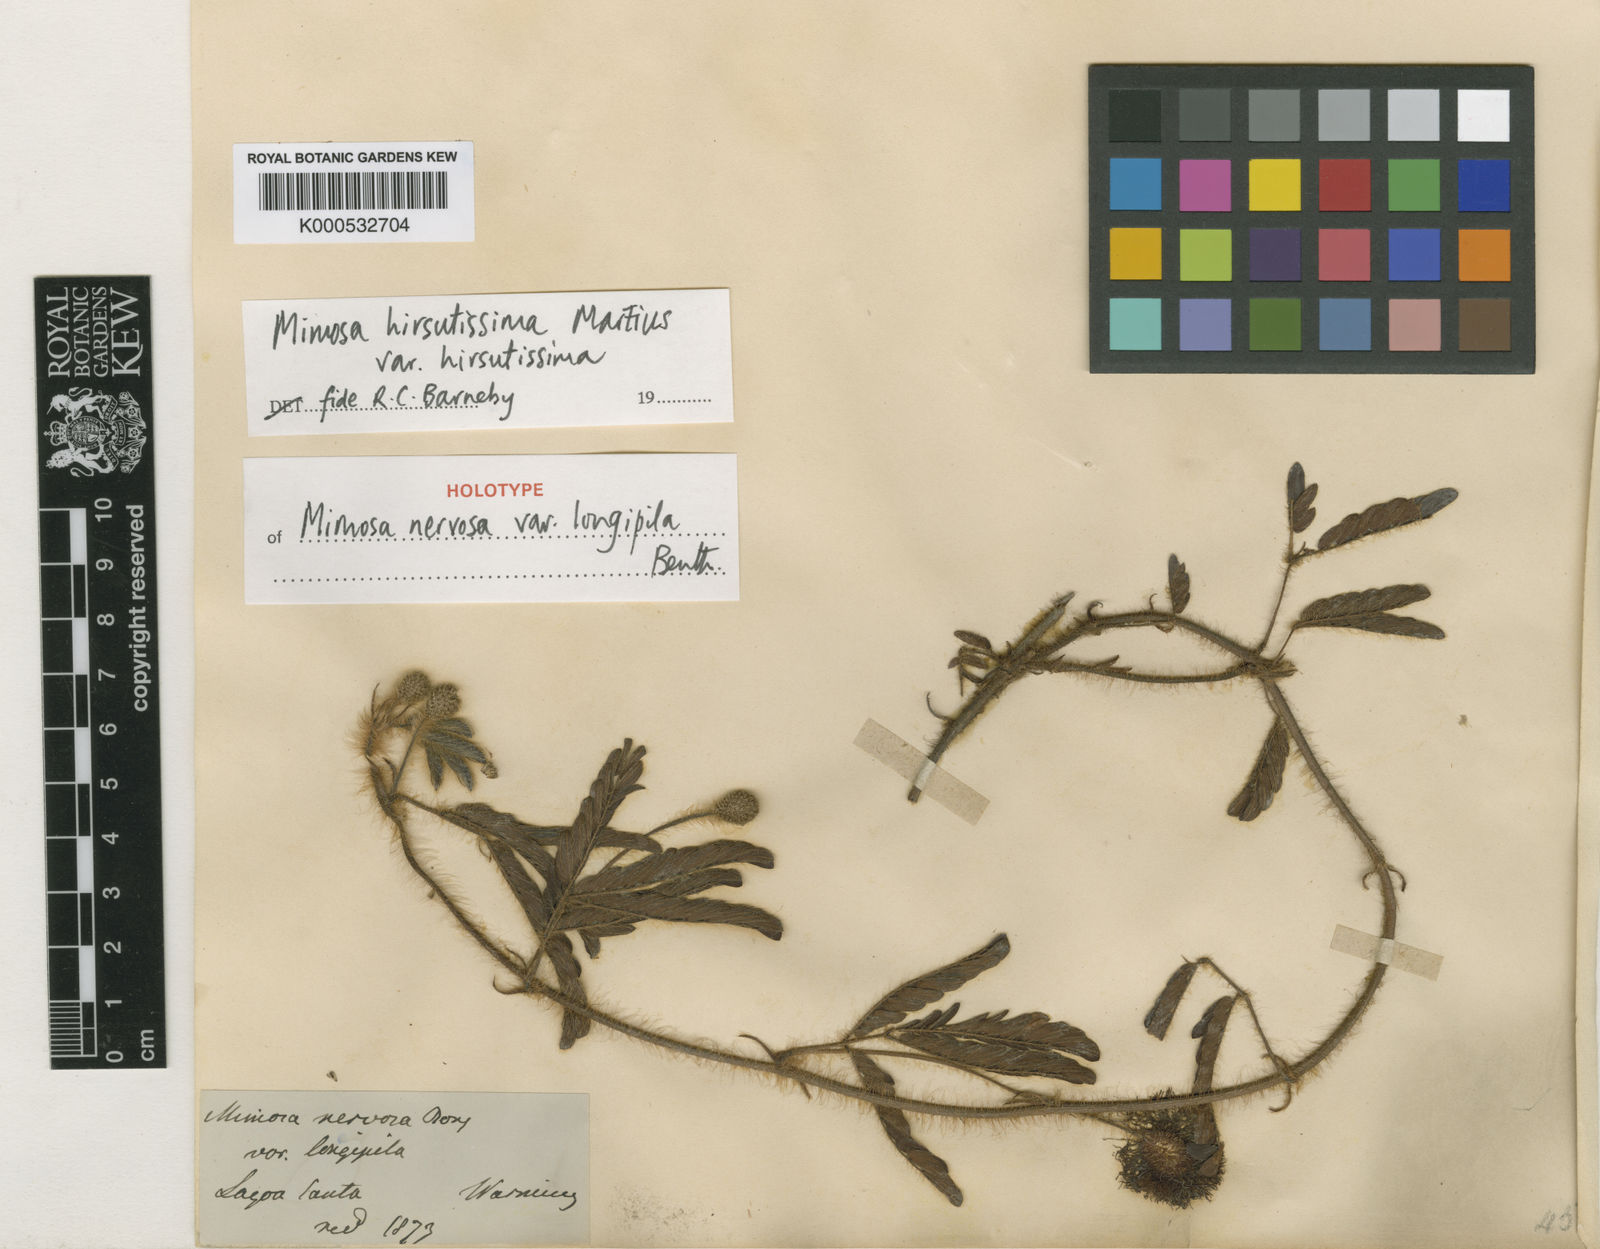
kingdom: Plantae
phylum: Tracheophyta
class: Magnoliopsida
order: Fabales
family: Fabaceae
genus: Mimosa
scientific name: Mimosa hirsutissima
